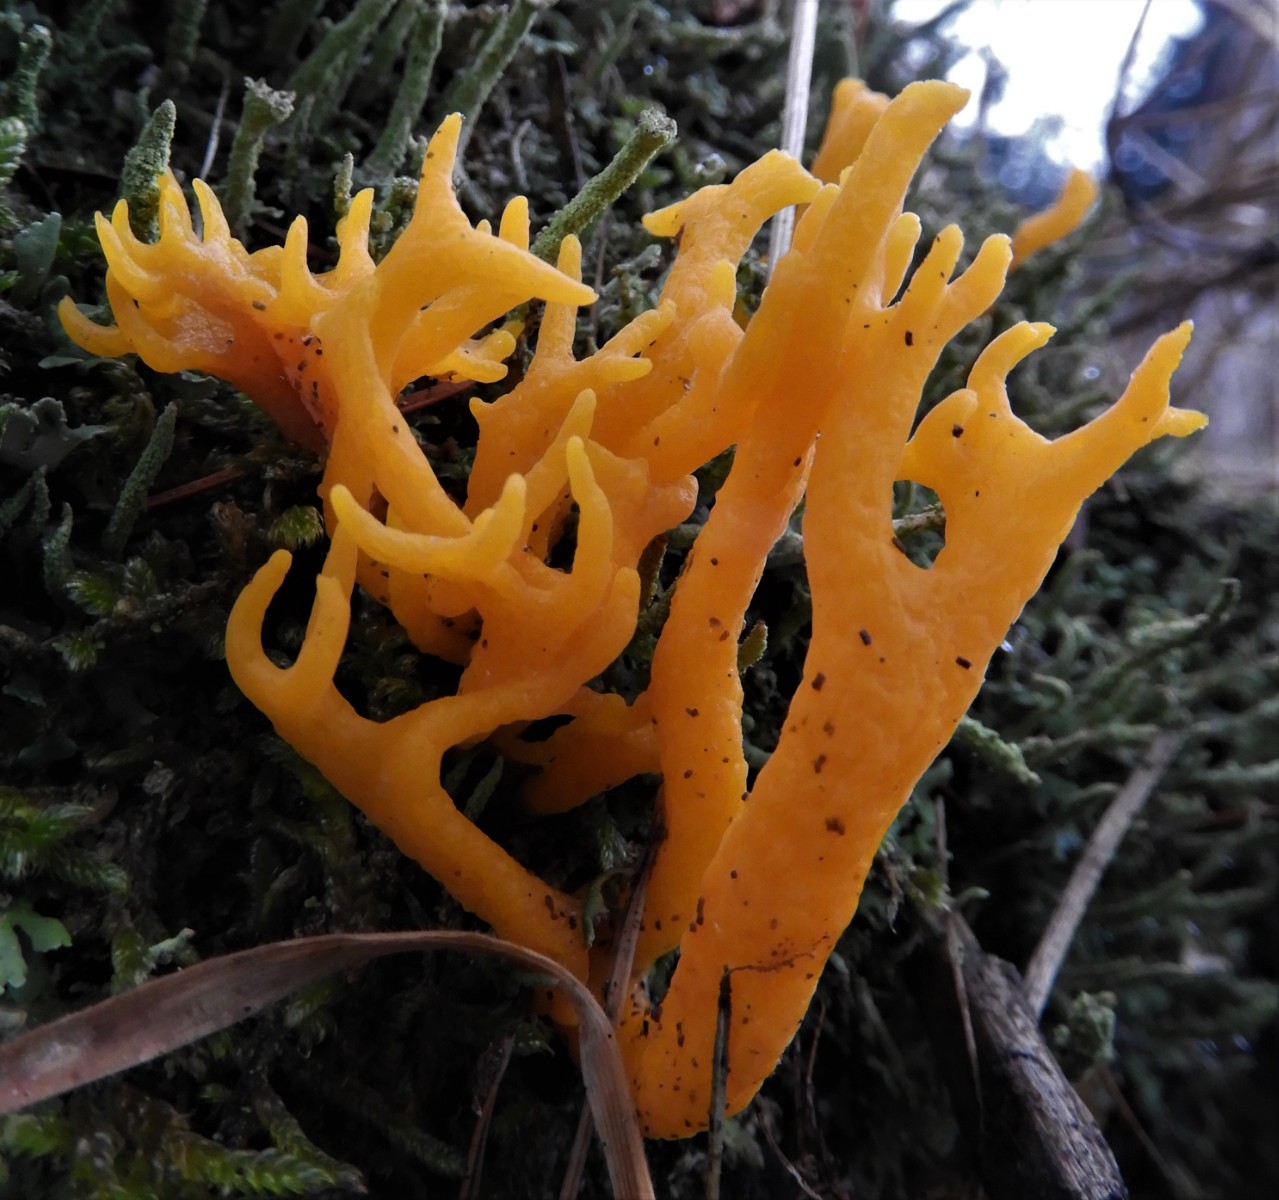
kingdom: Fungi
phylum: Basidiomycota
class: Dacrymycetes
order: Dacrymycetales
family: Dacrymycetaceae
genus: Calocera
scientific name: Calocera viscosa
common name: almindelig guldgaffel
